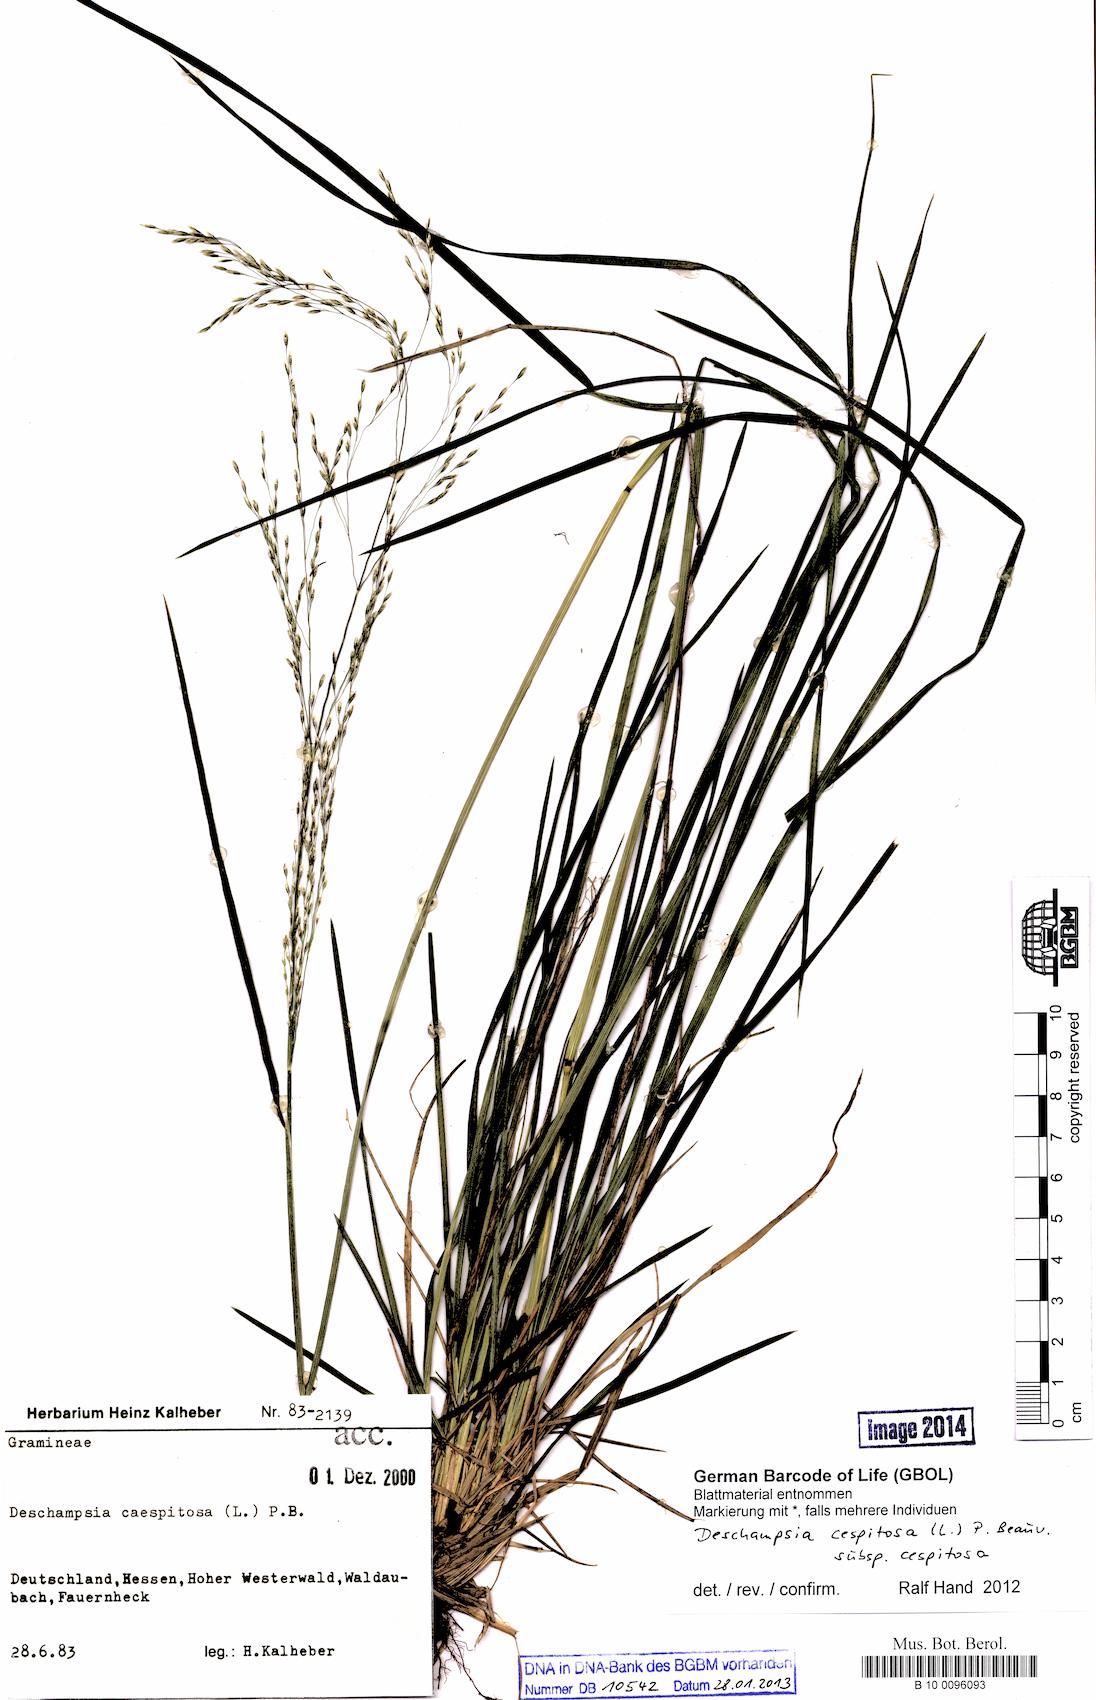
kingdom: Plantae
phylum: Tracheophyta
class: Liliopsida
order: Poales
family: Poaceae
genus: Deschampsia
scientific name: Deschampsia cespitosa
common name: Tufted hair-grass
